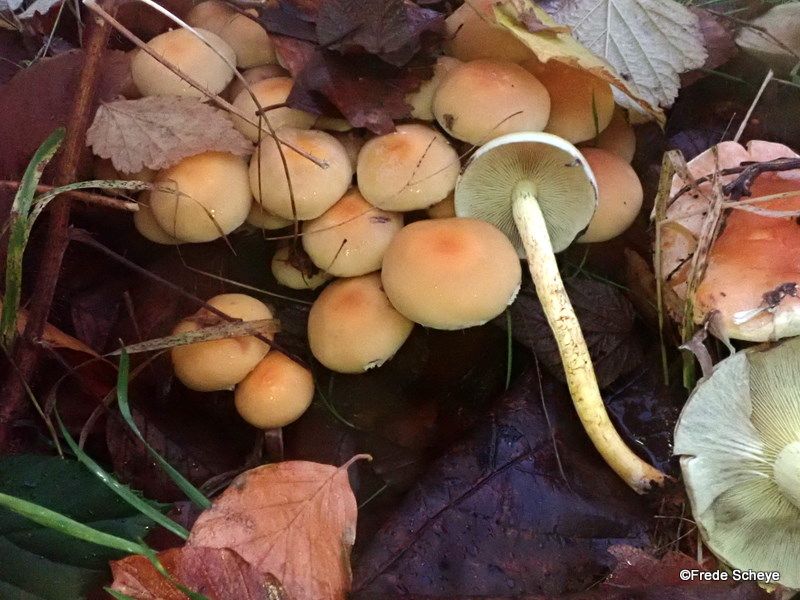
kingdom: Fungi
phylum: Basidiomycota
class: Agaricomycetes
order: Agaricales
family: Strophariaceae
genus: Hypholoma
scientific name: Hypholoma fasciculare
